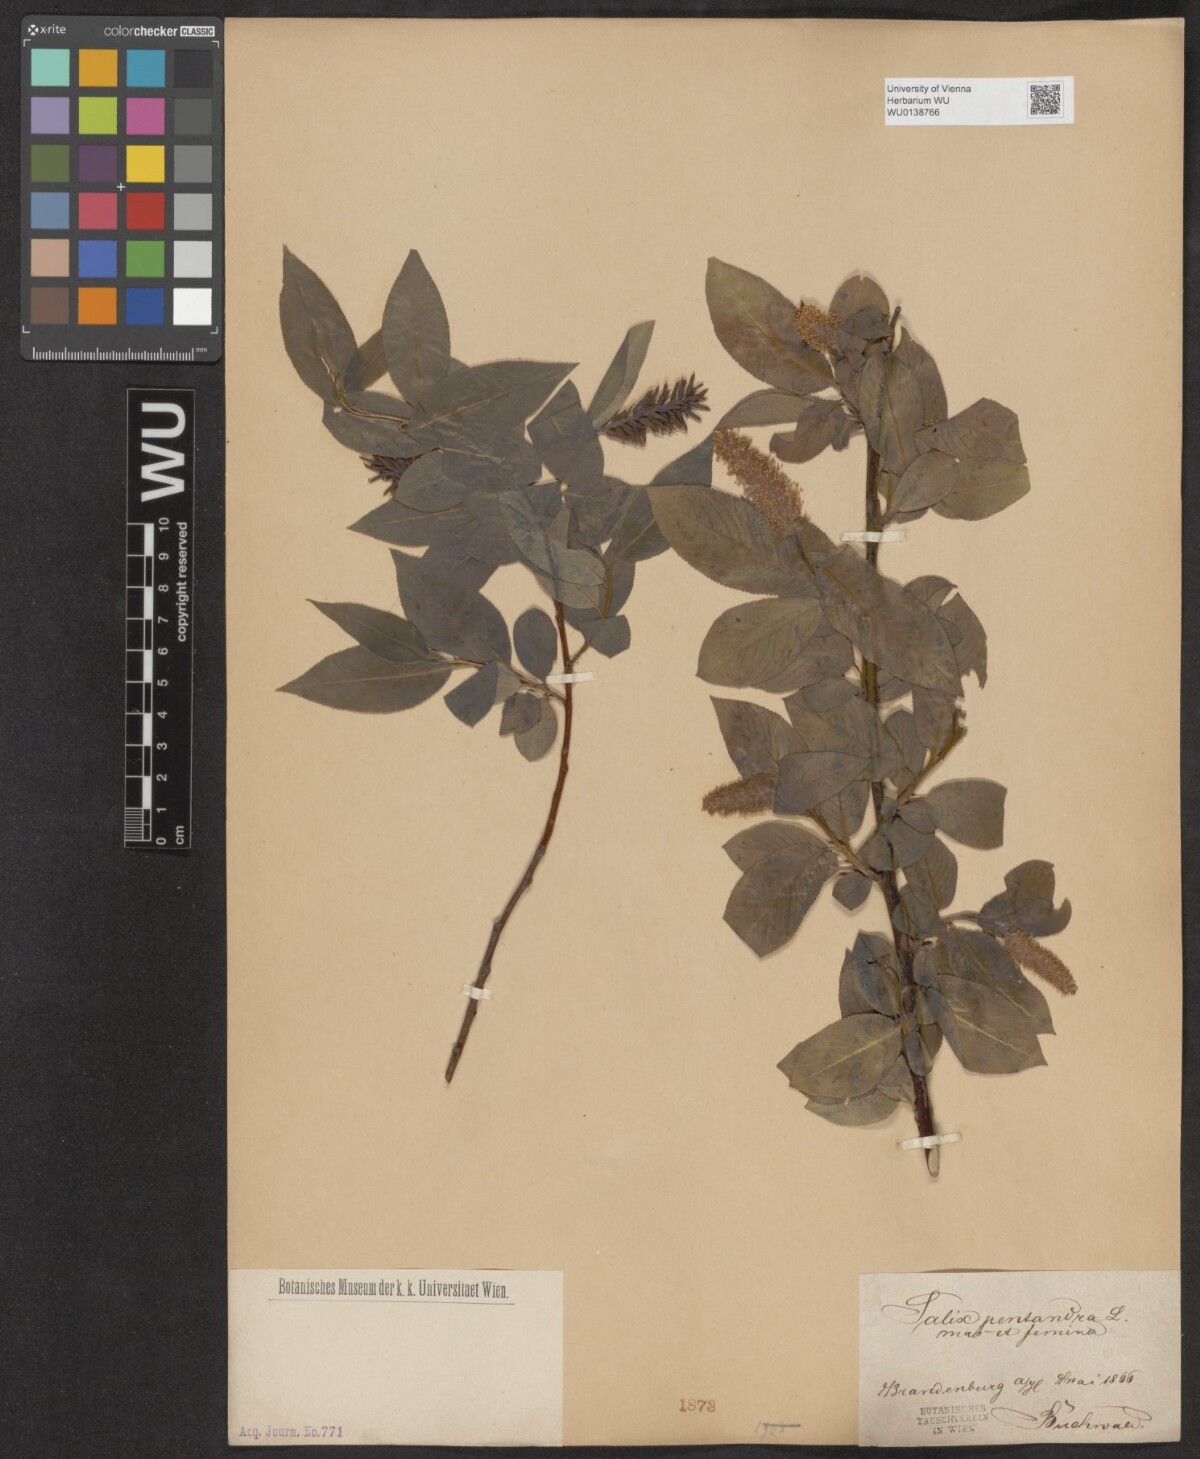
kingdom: Plantae
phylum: Tracheophyta
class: Magnoliopsida
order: Malpighiales
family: Salicaceae
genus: Salix
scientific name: Salix pentandra
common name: Bay willow
